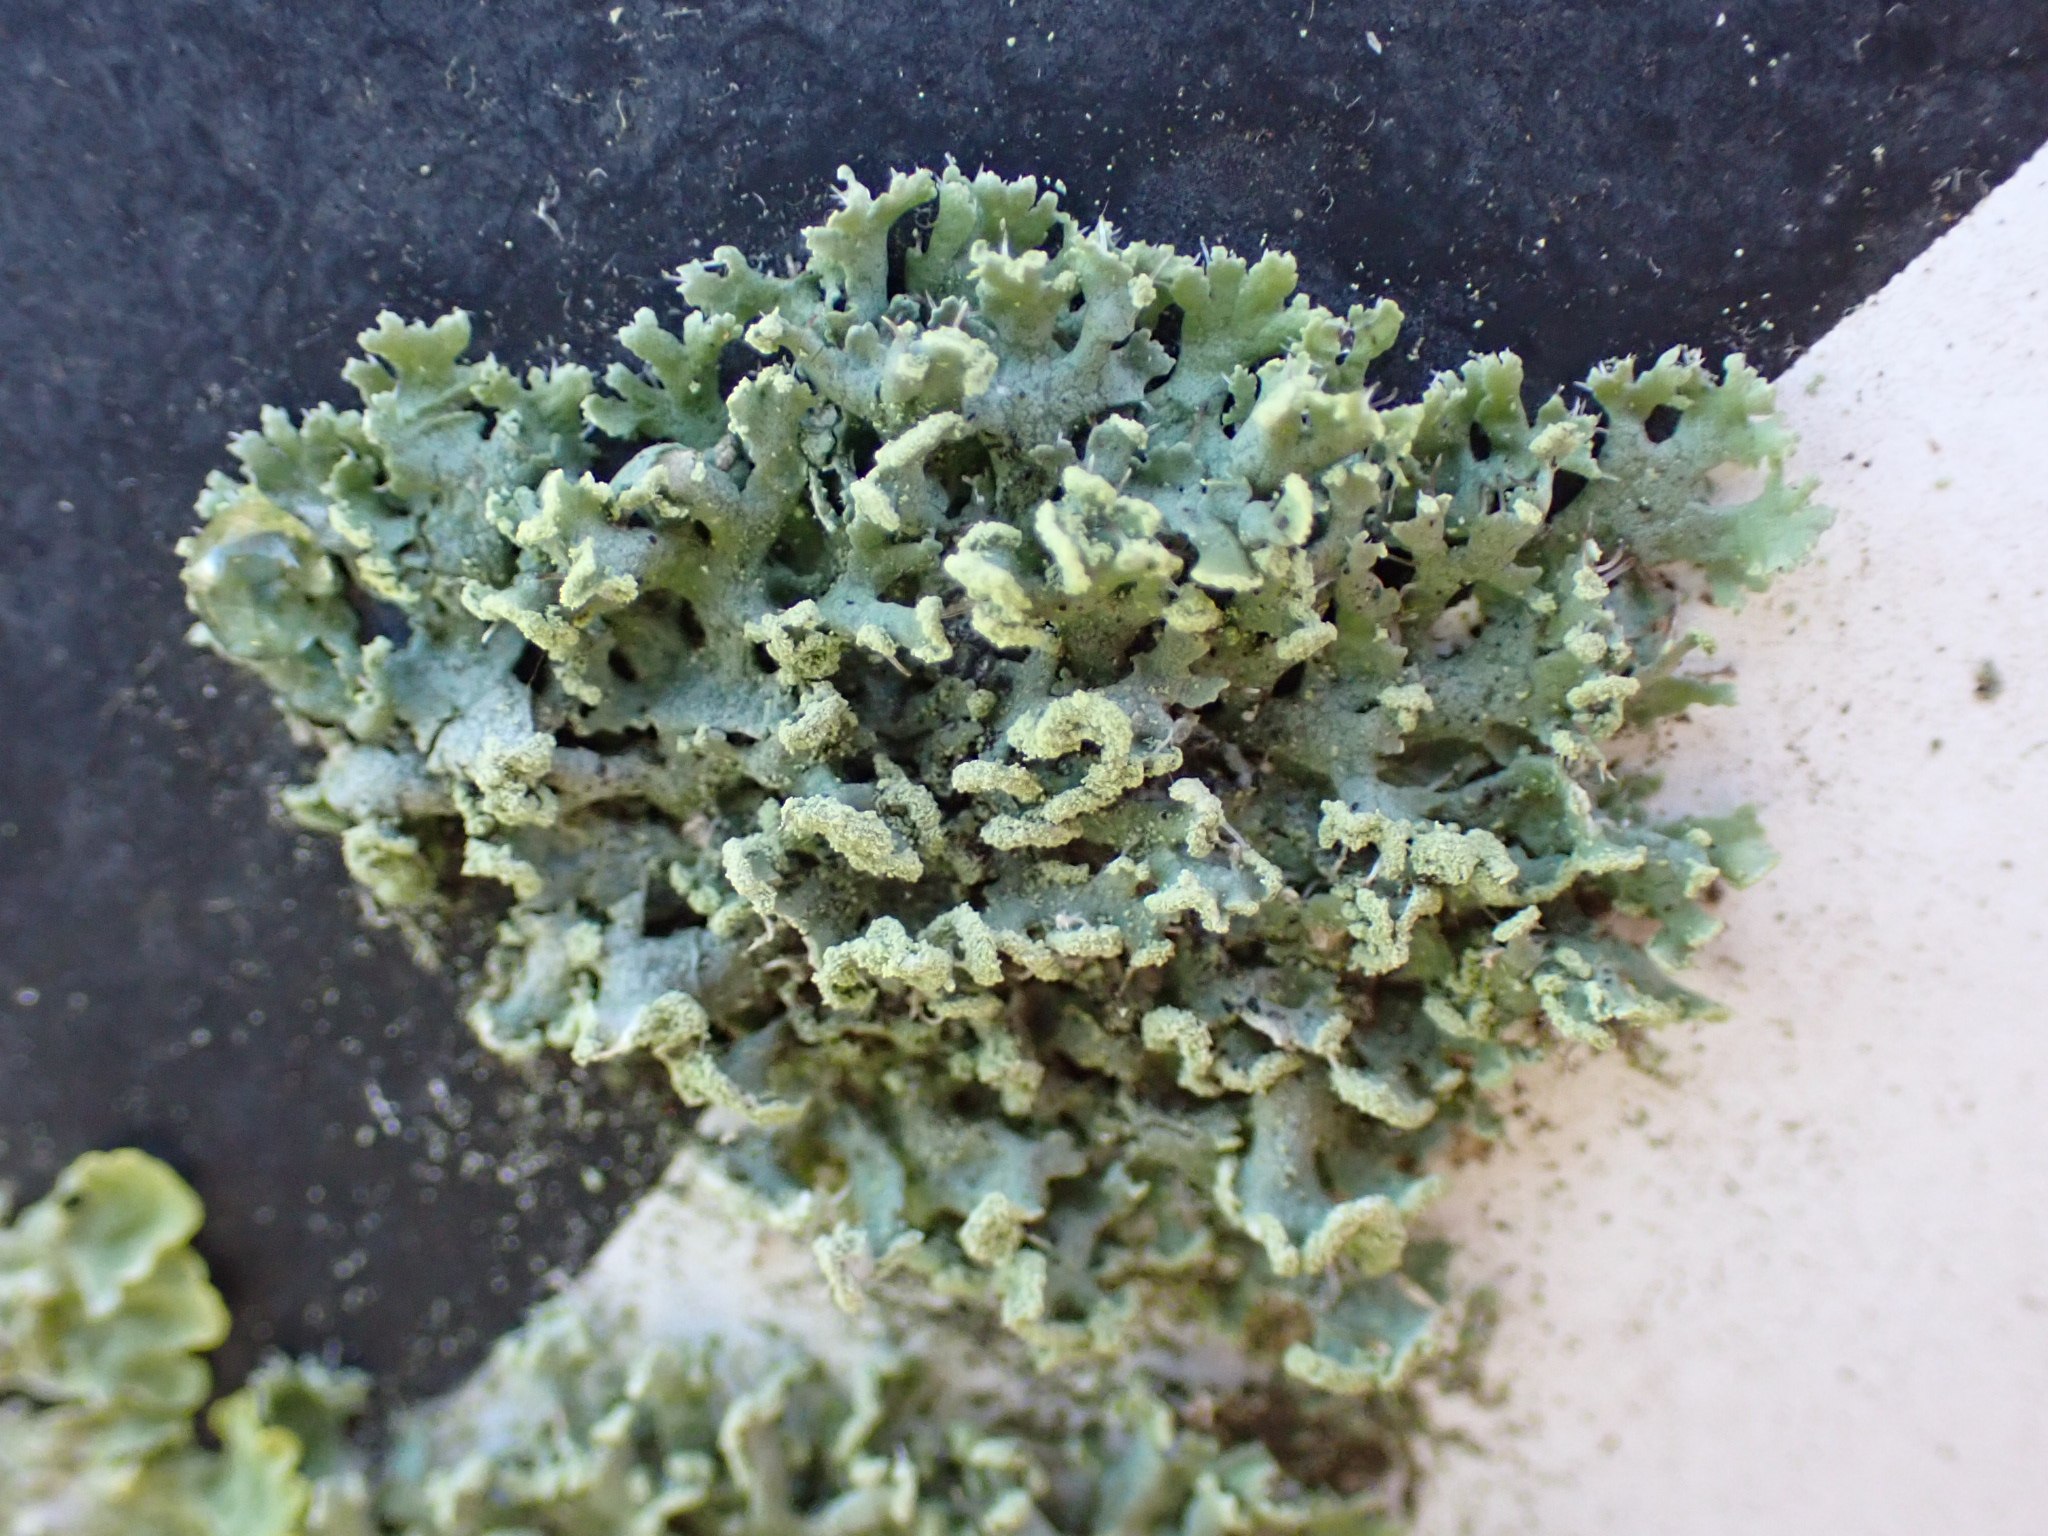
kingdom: Fungi
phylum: Ascomycota
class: Lecanoromycetes
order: Caliciales
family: Physciaceae
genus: Physcia
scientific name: Physcia tenella
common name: spæd rosetlav
